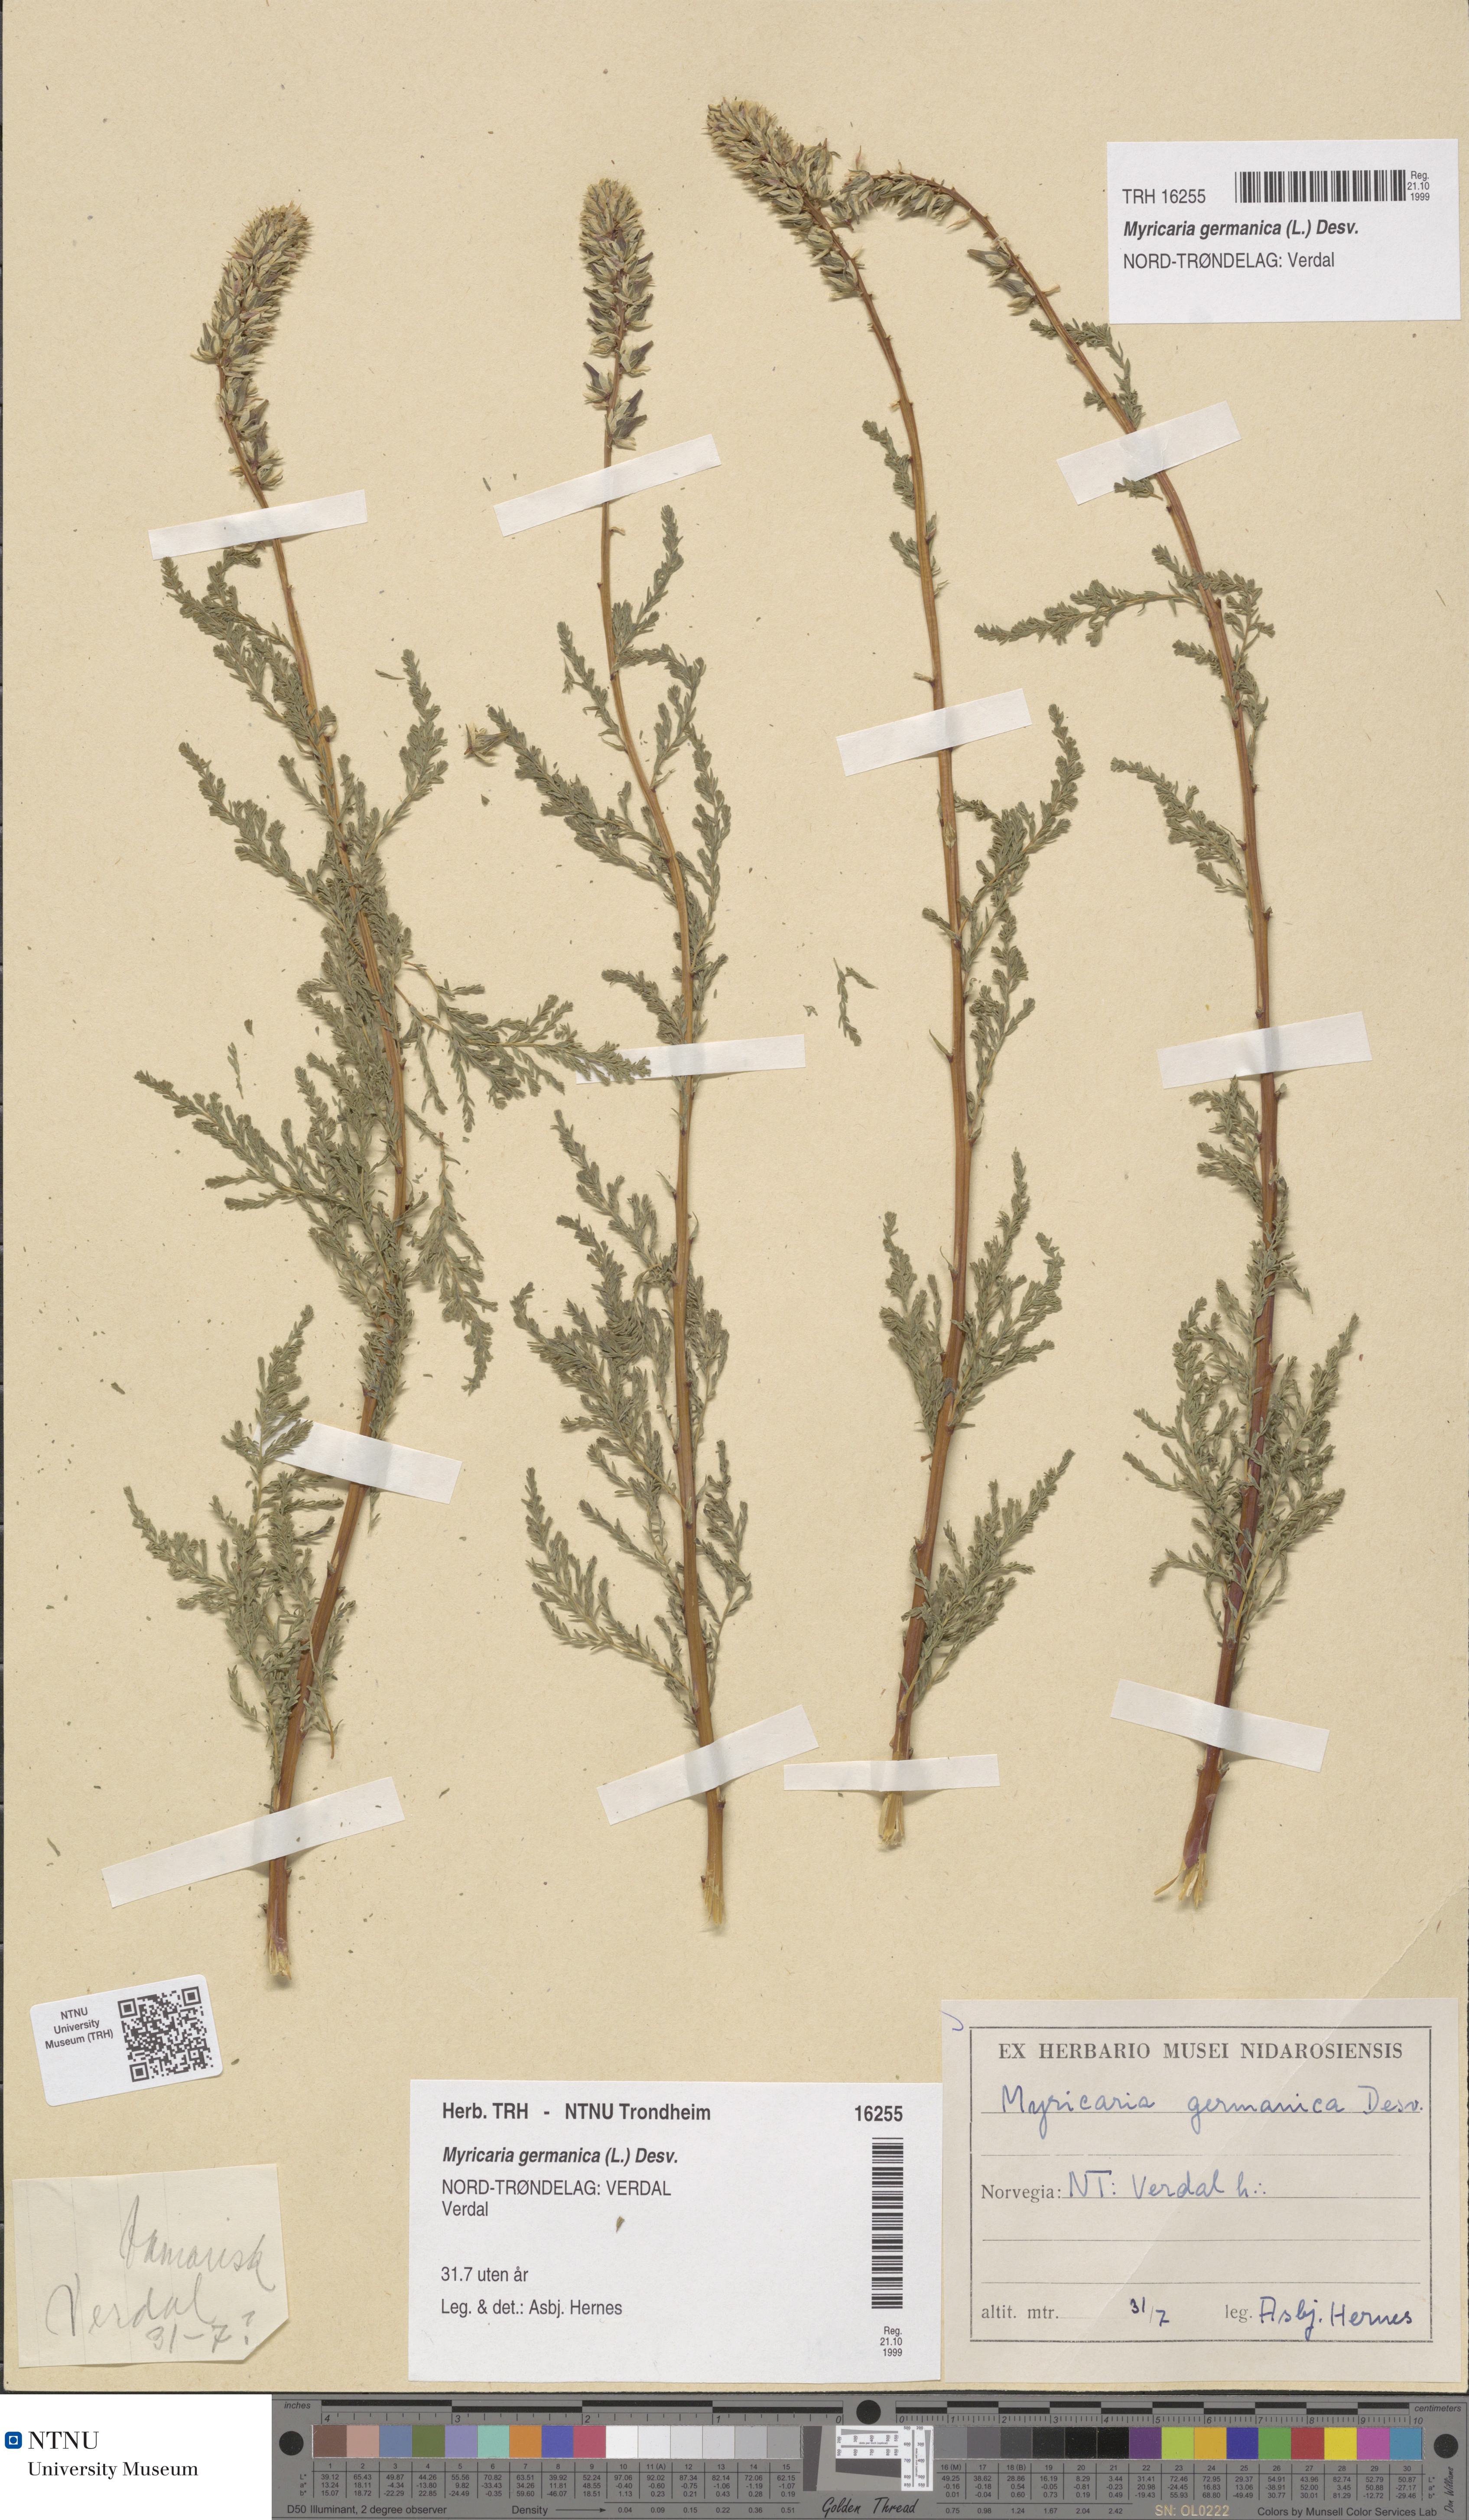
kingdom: Plantae
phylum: Tracheophyta
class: Magnoliopsida
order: Caryophyllales
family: Tamaricaceae
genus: Myricaria
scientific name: Myricaria germanica
